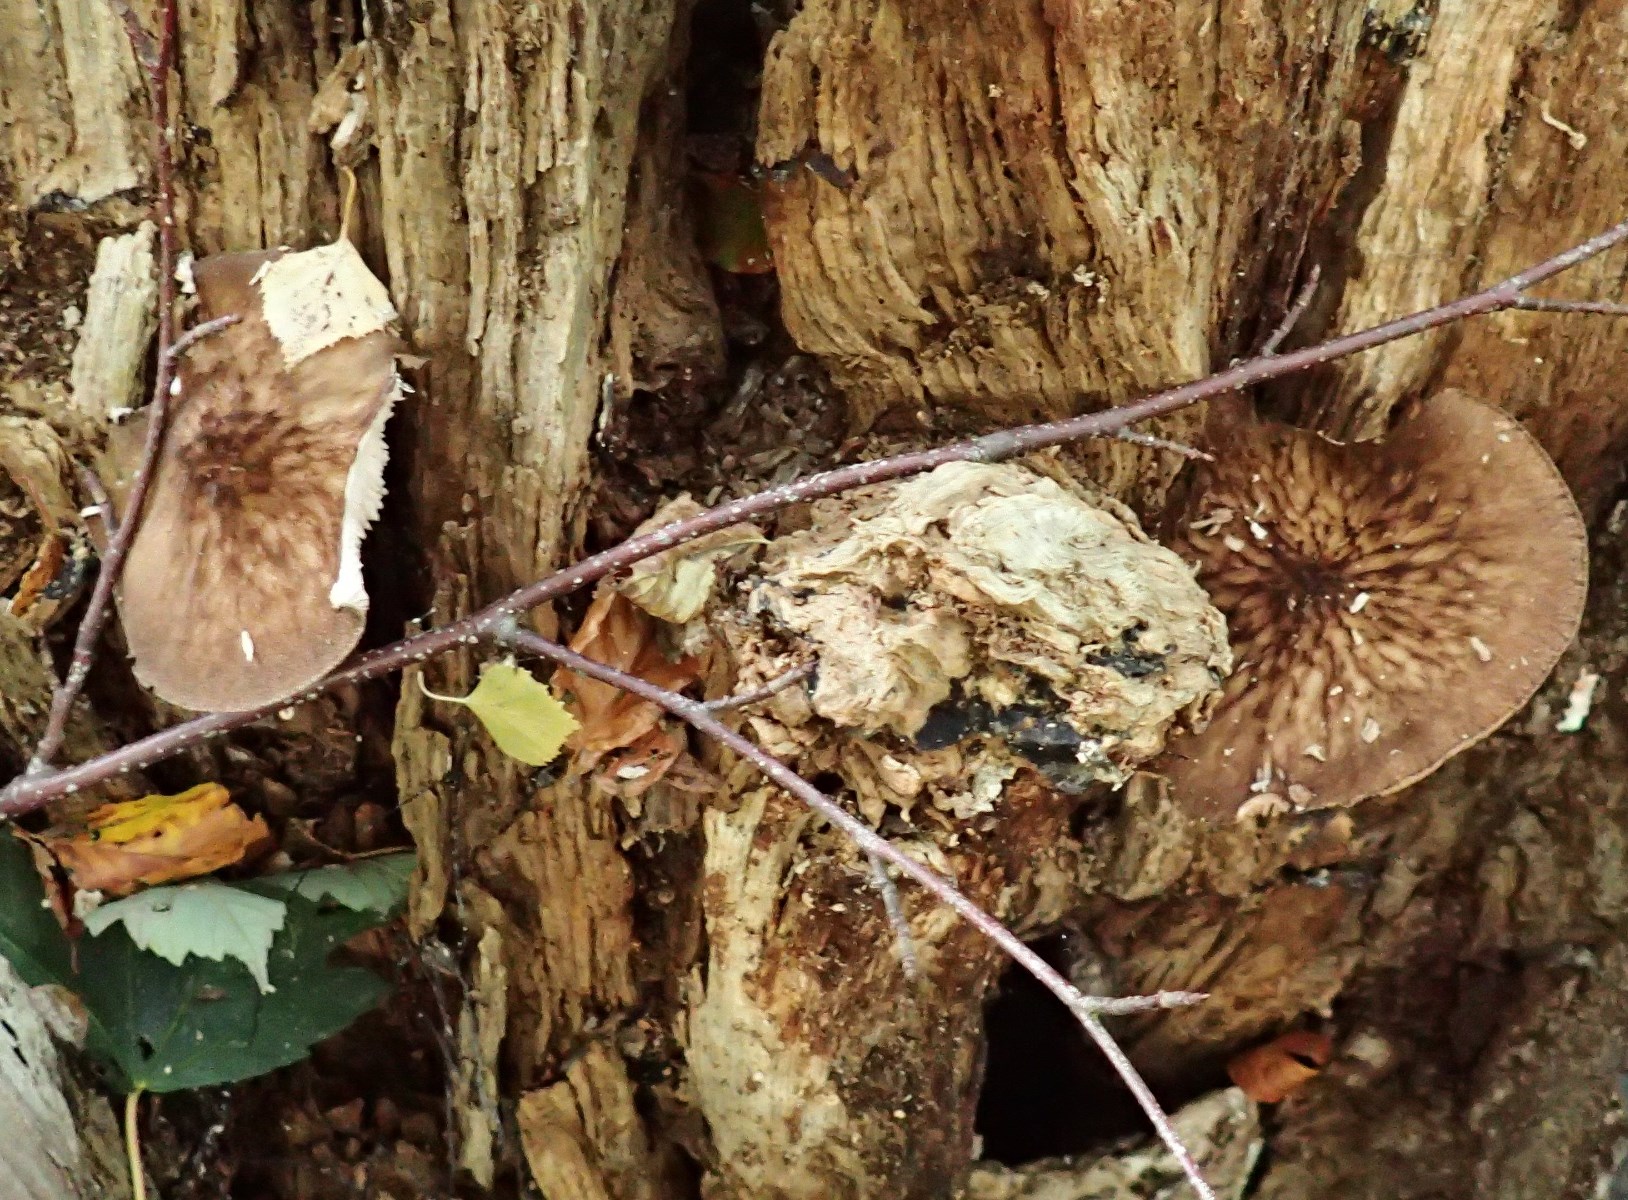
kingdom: Fungi
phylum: Basidiomycota
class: Agaricomycetes
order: Agaricales
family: Pluteaceae
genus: Pluteus
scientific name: Pluteus umbrosus
